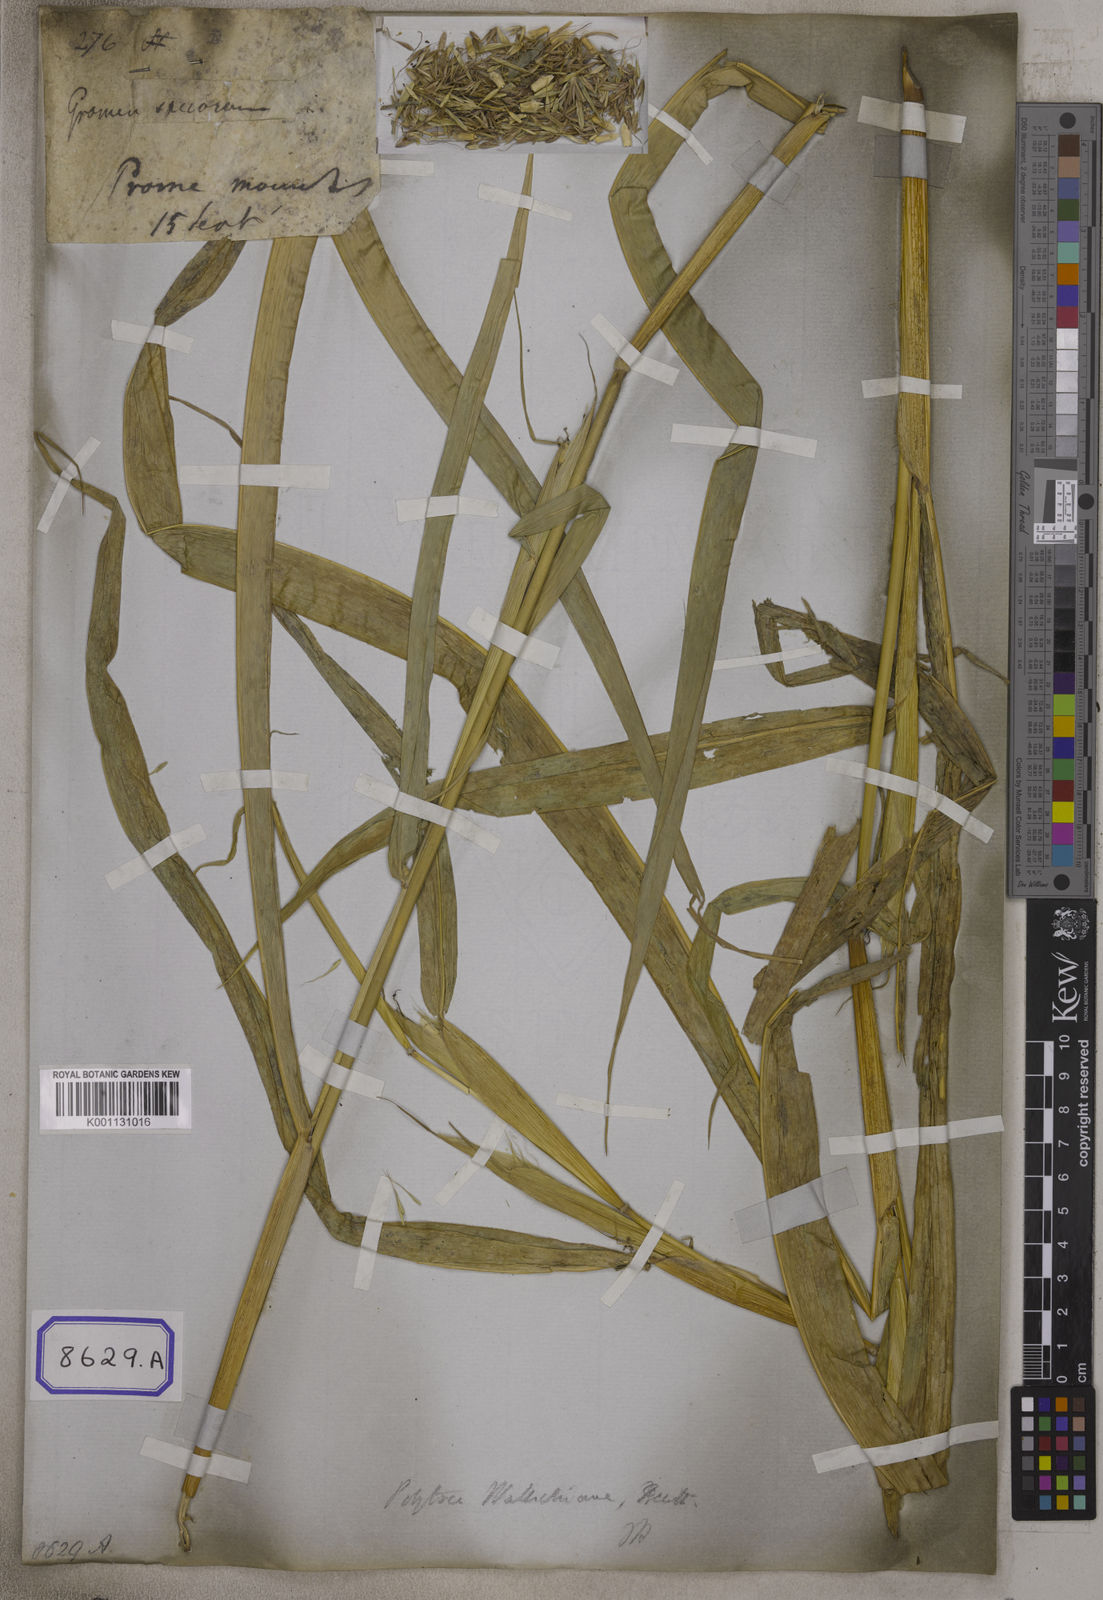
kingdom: Plantae
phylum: Tracheophyta
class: Liliopsida
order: Poales
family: Poaceae
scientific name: Poaceae
